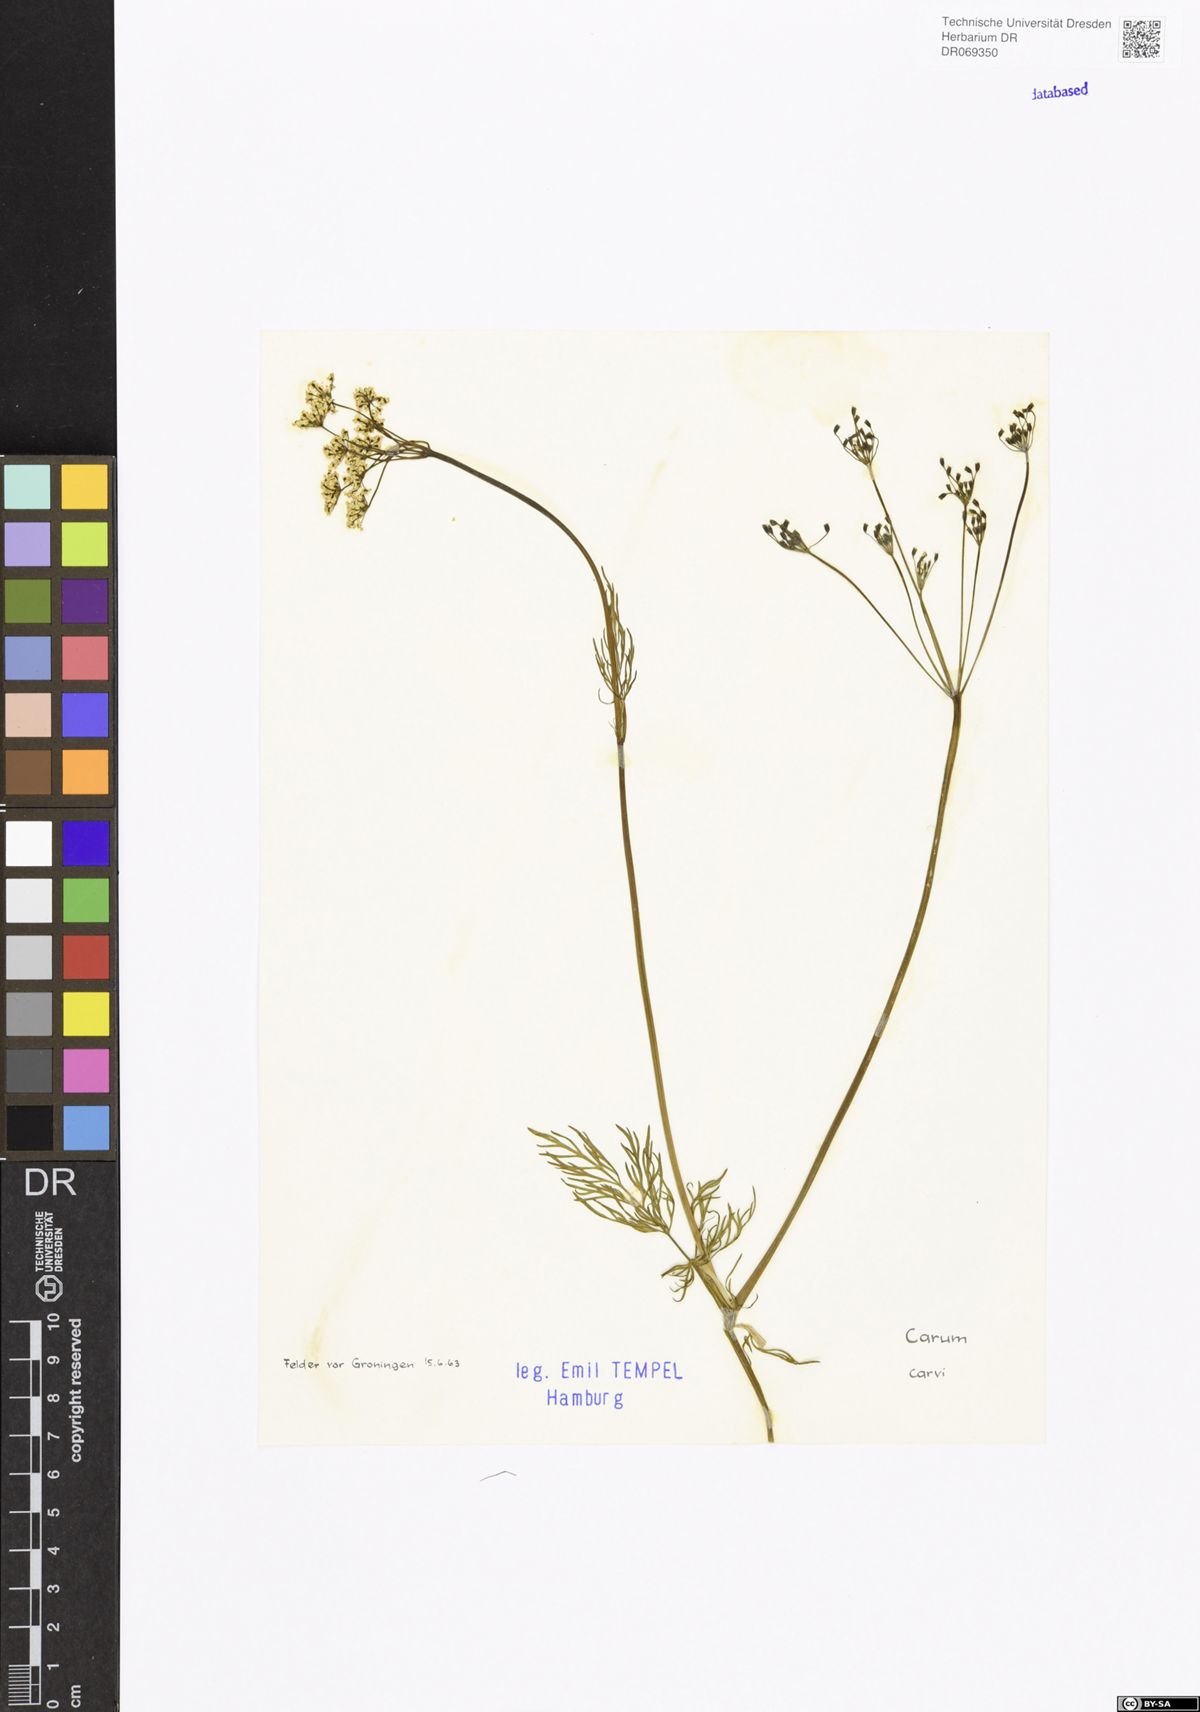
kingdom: Plantae
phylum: Tracheophyta
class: Magnoliopsida
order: Apiales
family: Apiaceae
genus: Carum
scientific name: Carum carvi
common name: Caraway
